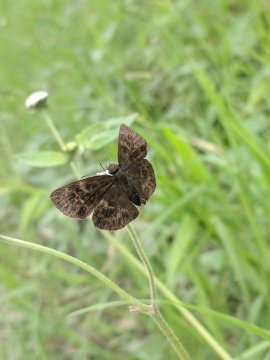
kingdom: Animalia
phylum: Arthropoda
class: Insecta
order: Lepidoptera
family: Hesperiidae
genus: Ouleus
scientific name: Ouleus
